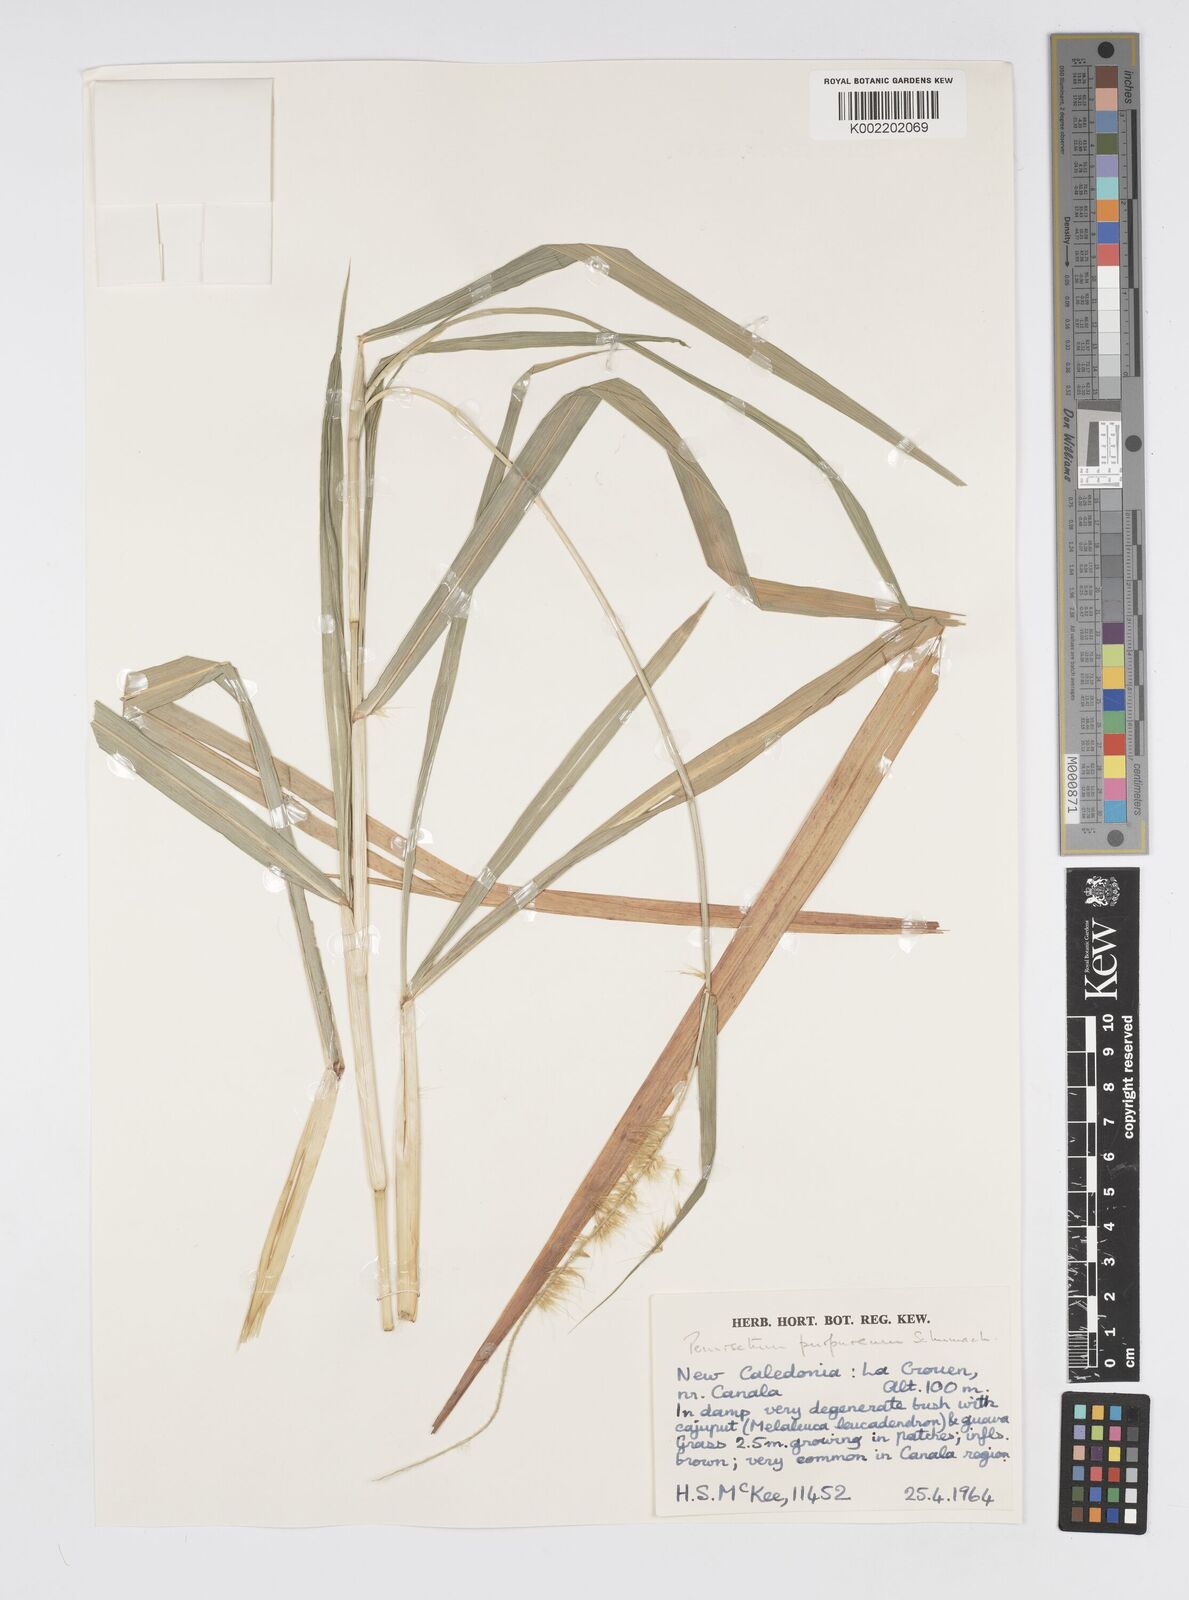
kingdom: Plantae
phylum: Tracheophyta
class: Liliopsida
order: Poales
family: Poaceae
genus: Cenchrus
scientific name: Cenchrus purpureus
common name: Elephant grass
